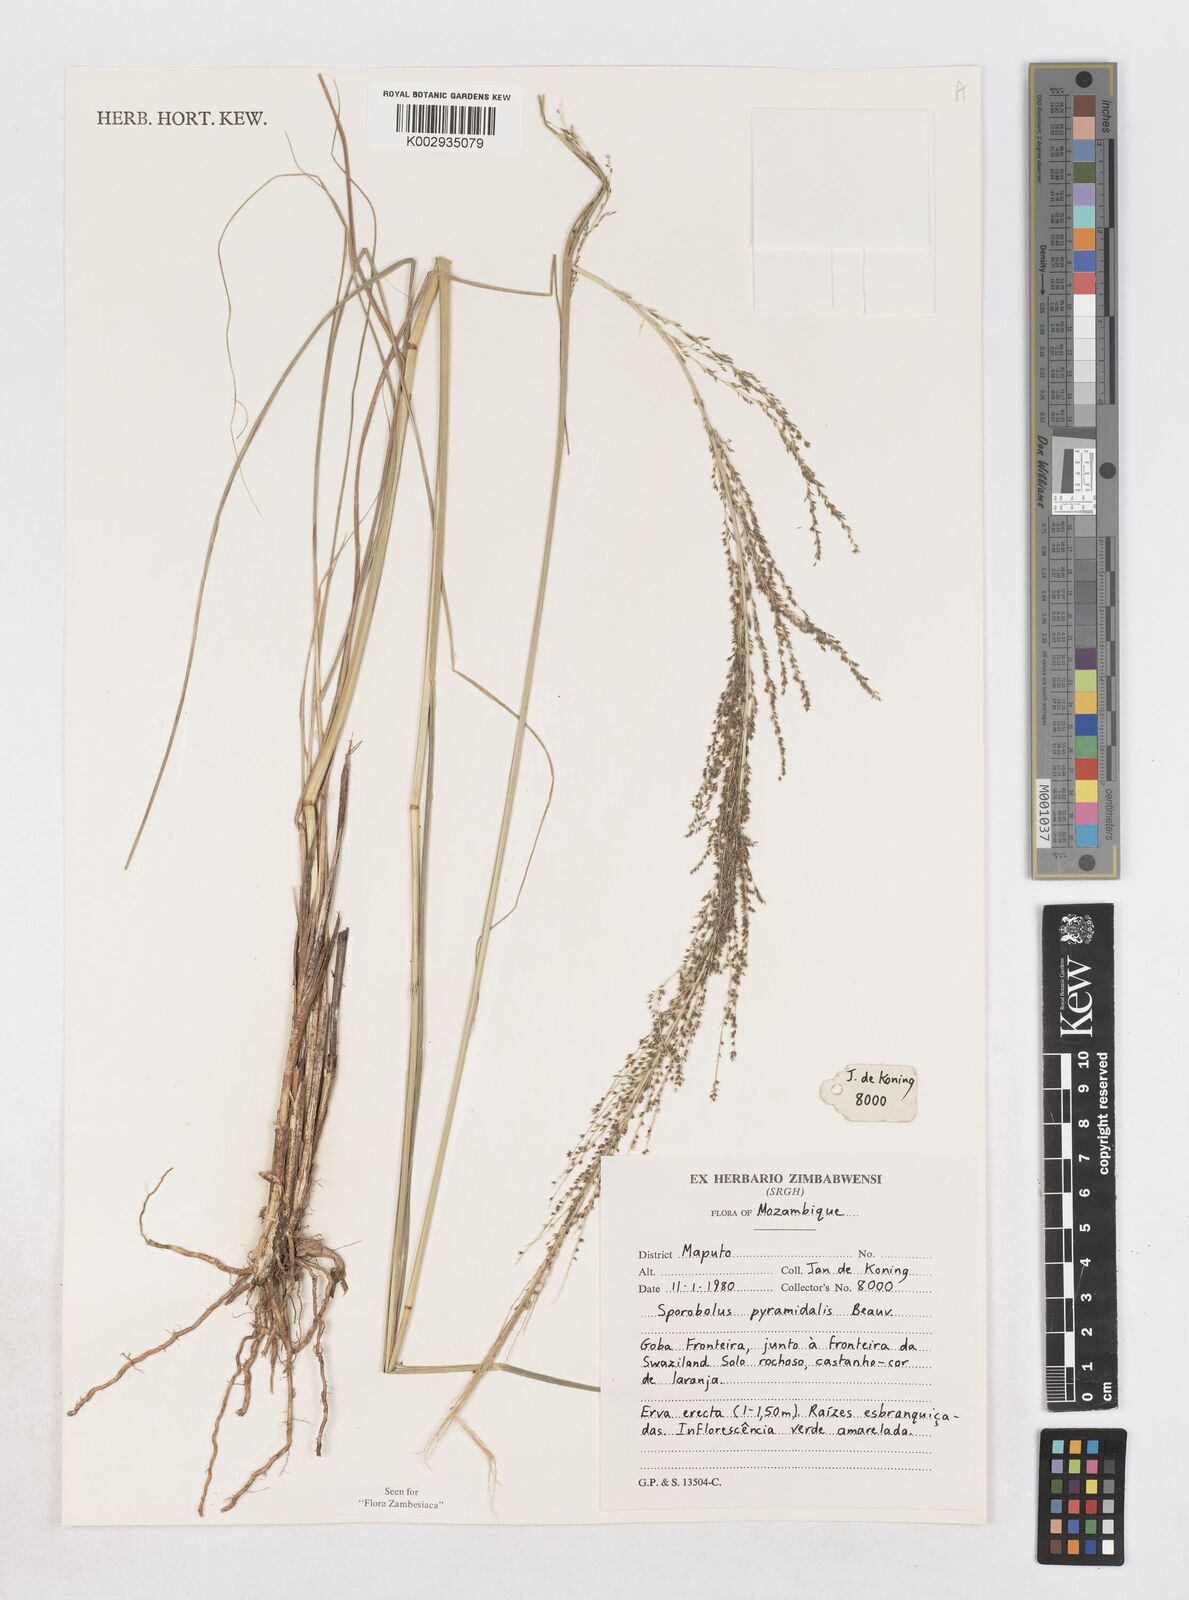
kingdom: Plantae
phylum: Tracheophyta
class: Liliopsida
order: Poales
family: Poaceae
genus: Sporobolus
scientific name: Sporobolus pyramidalis
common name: West indian dropseed
